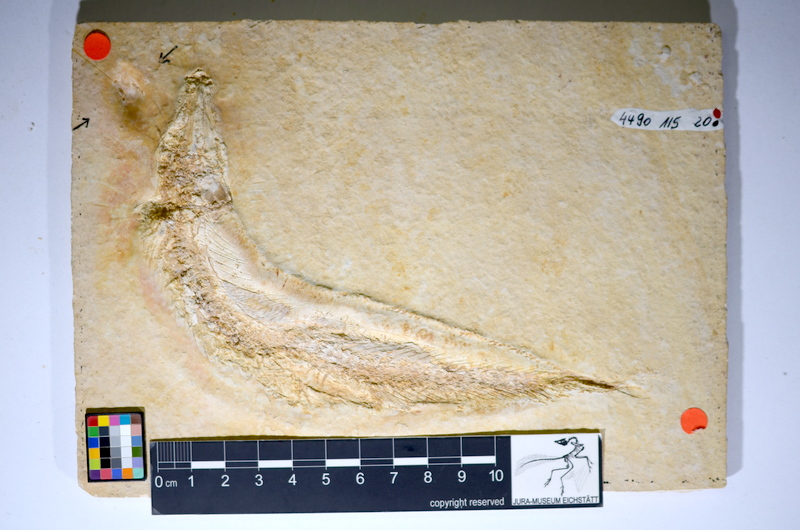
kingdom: Animalia
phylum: Chordata
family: Ascalaboidae
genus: Tharsis
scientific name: Tharsis dubius
